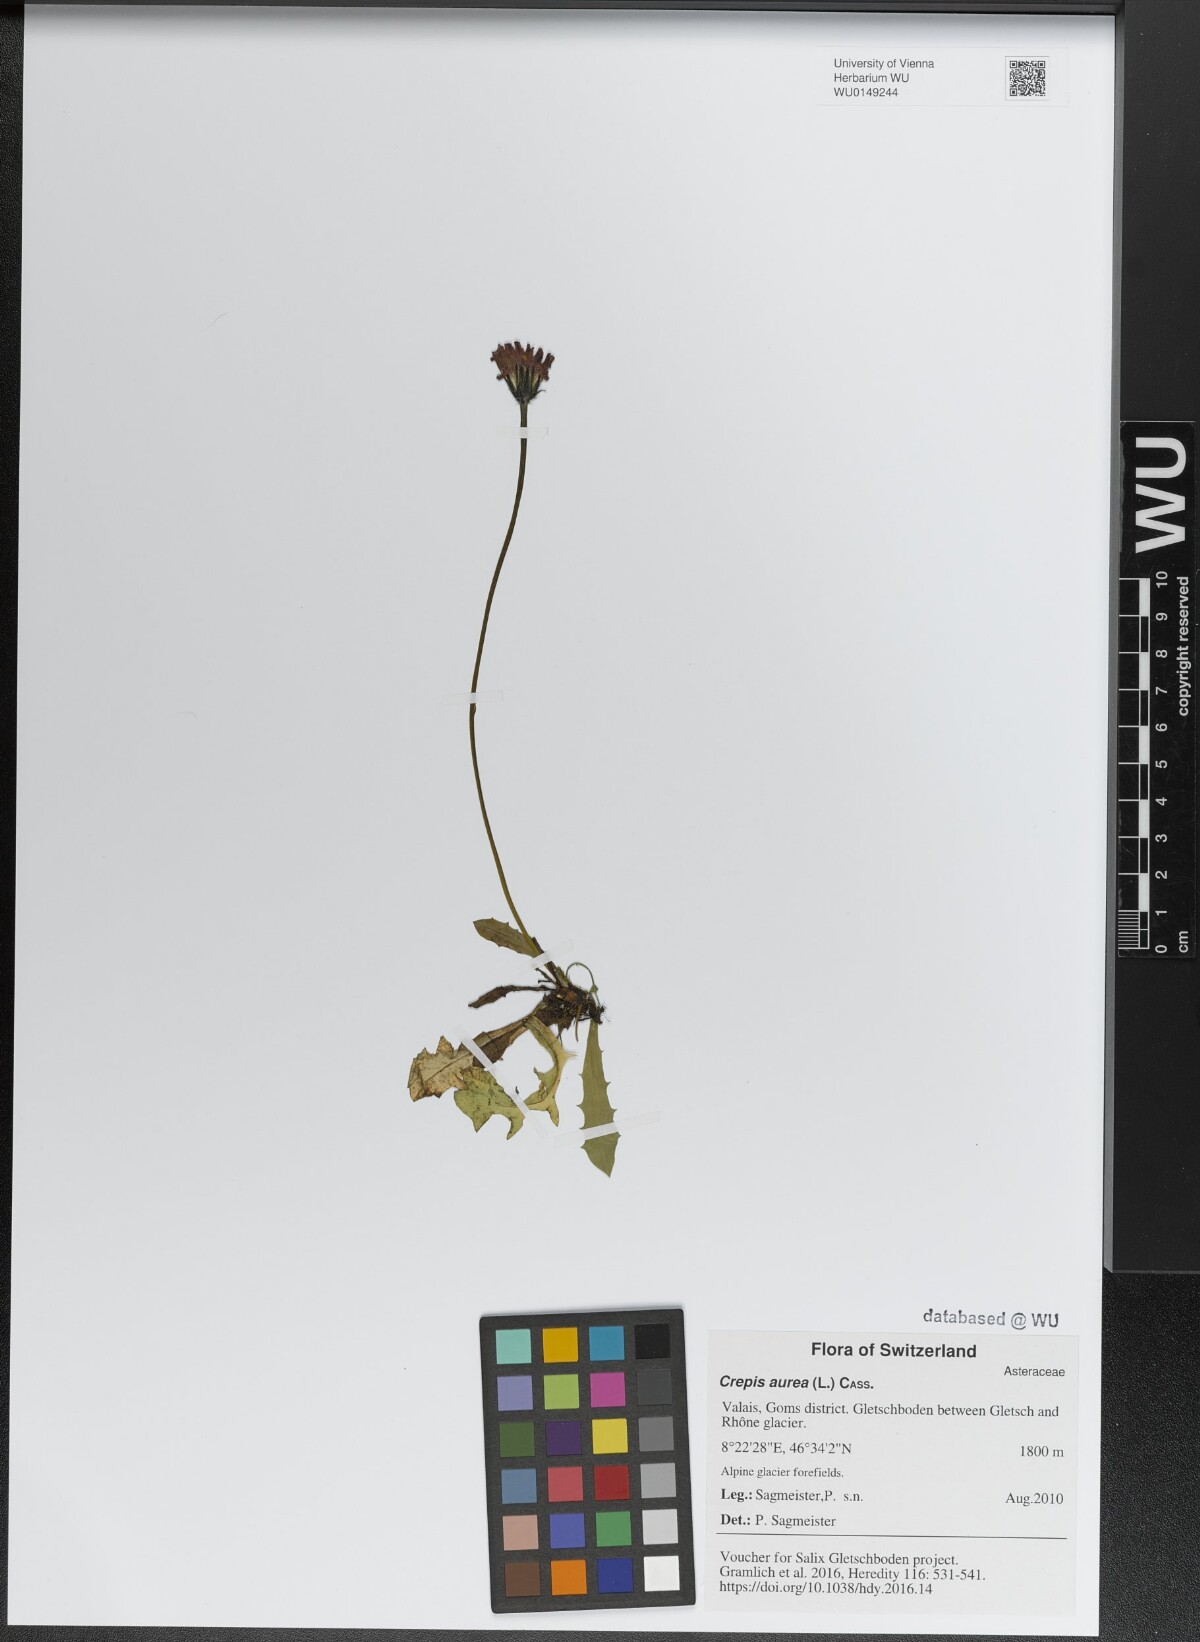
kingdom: Plantae
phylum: Tracheophyta
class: Magnoliopsida
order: Asterales
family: Asteraceae
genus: Crepis
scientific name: Crepis aurea
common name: Golden hawk's-beard
